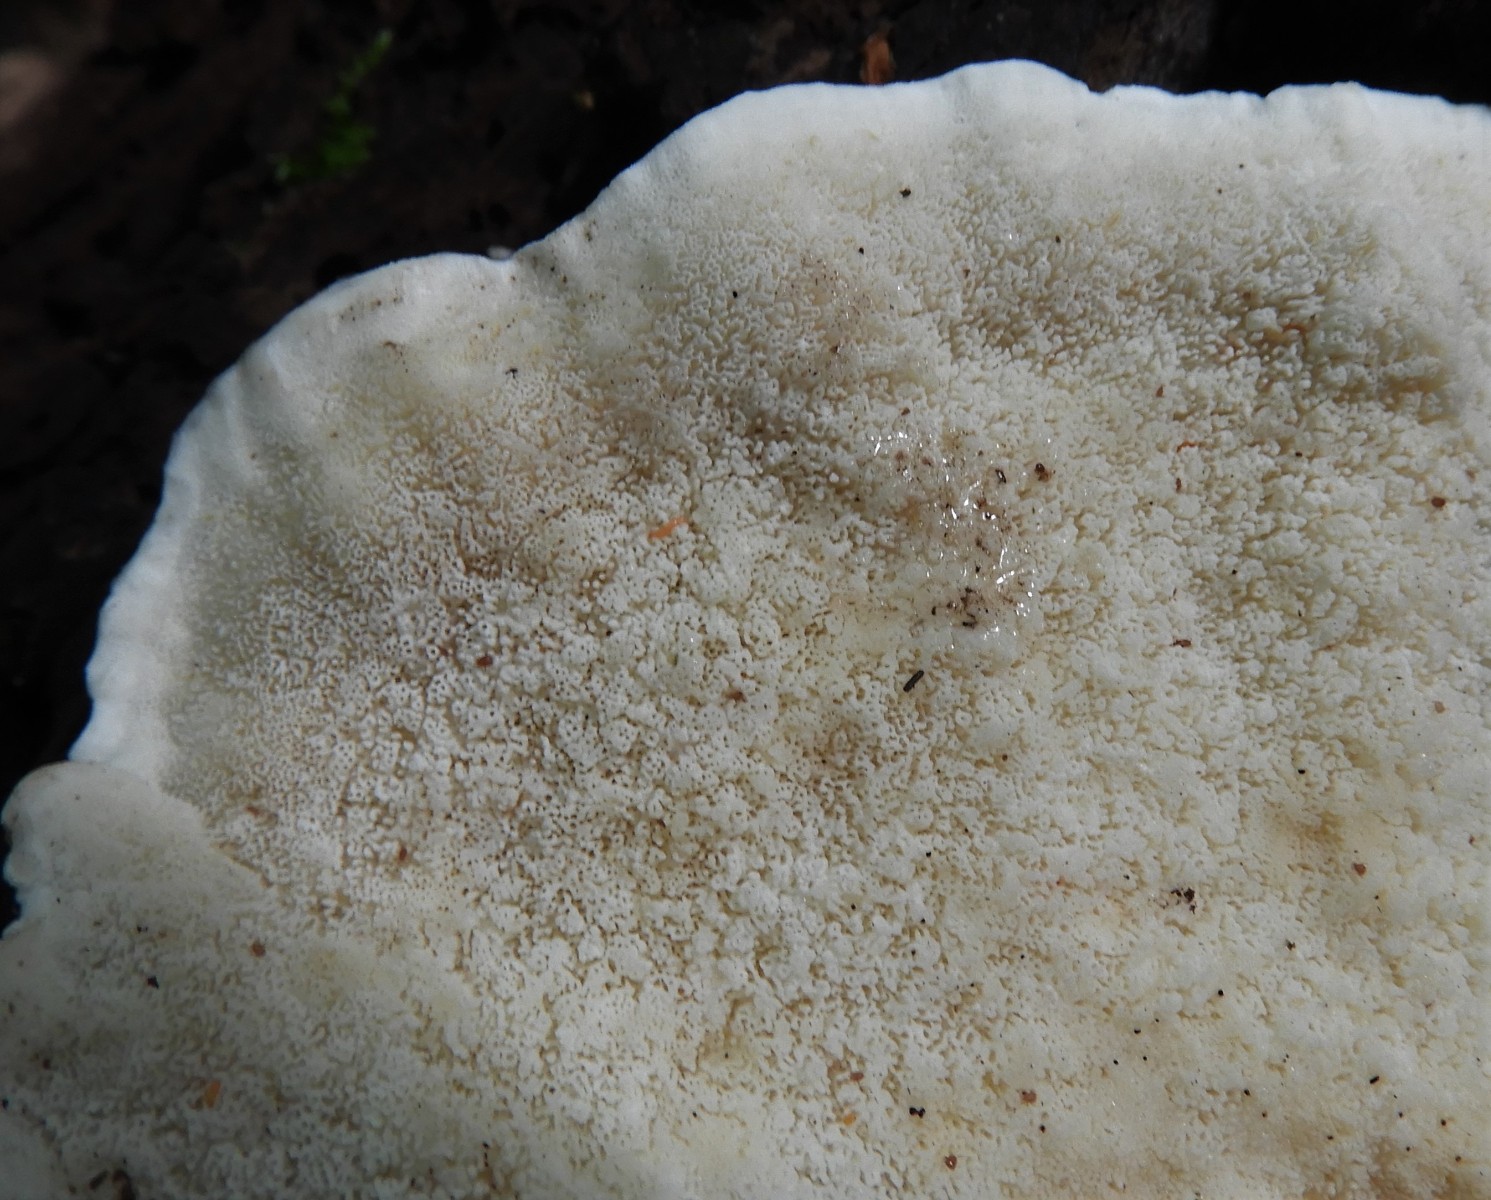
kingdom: Fungi
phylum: Basidiomycota
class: Agaricomycetes
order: Polyporales
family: Incrustoporiaceae
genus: Tyromyces
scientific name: Tyromyces lacteus
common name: mælkehvid kødporesvamp
